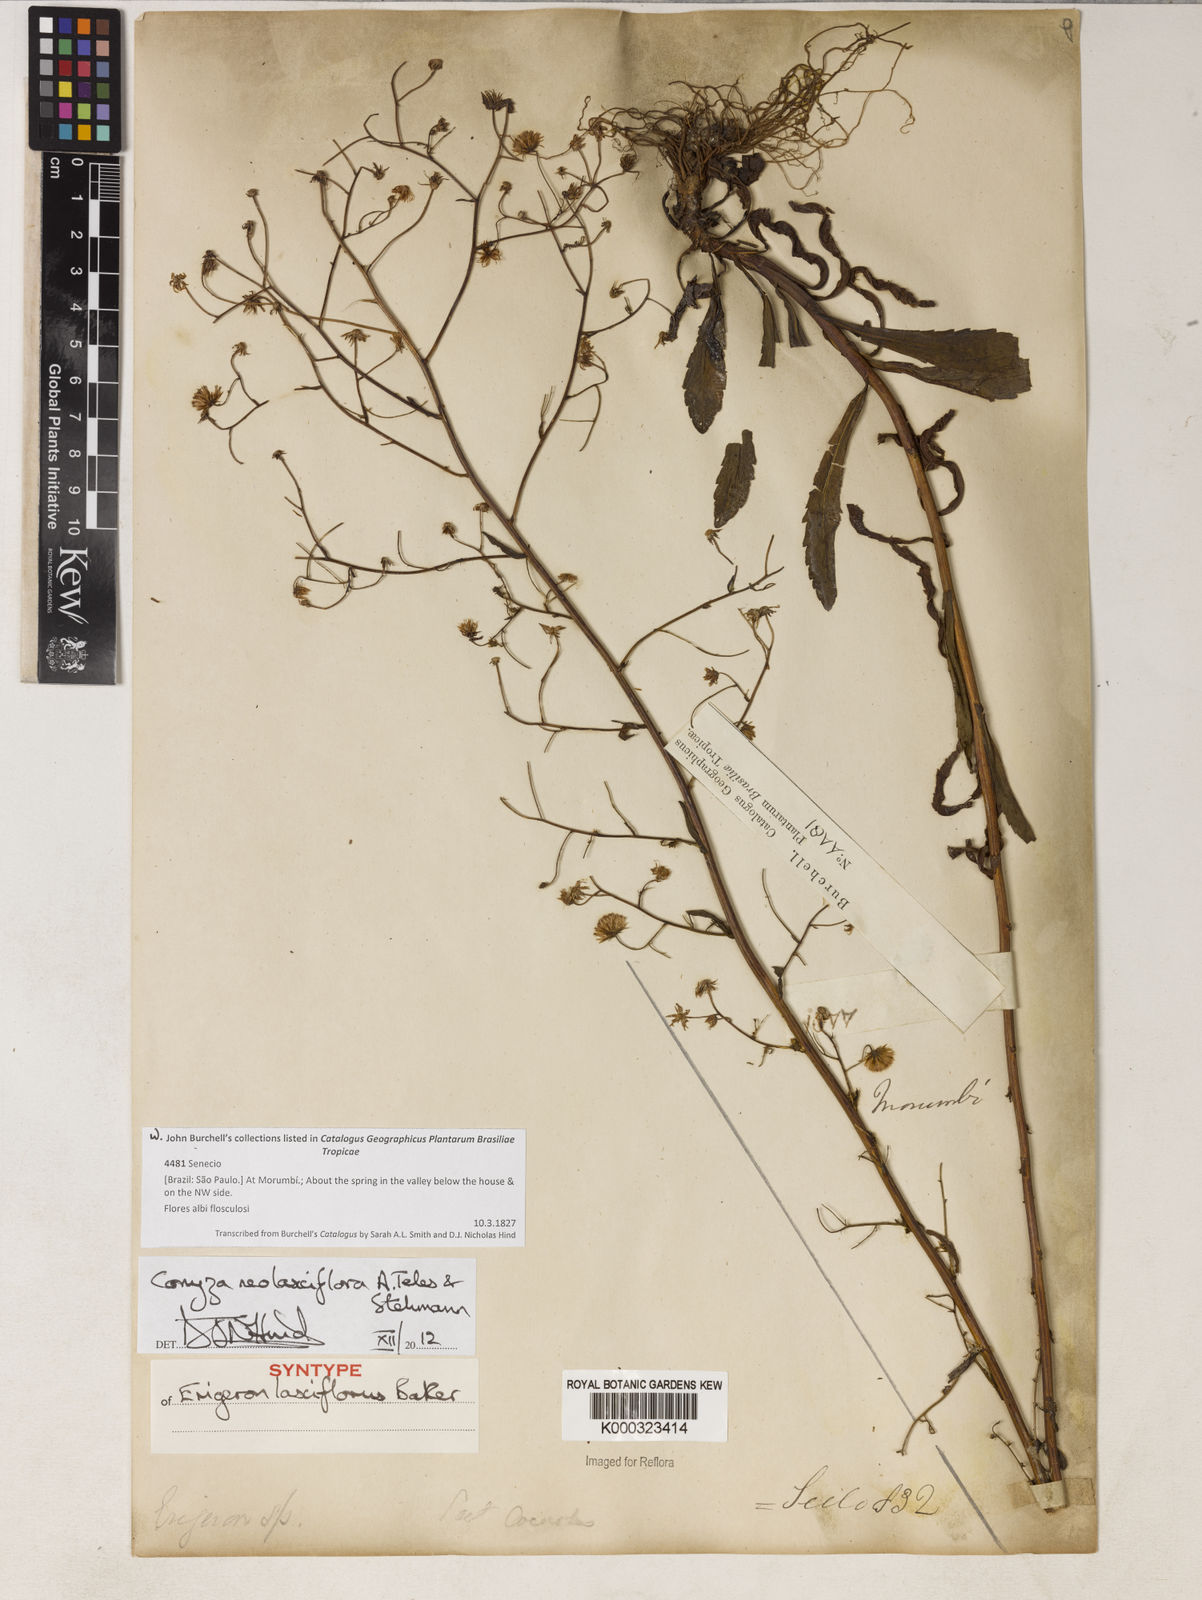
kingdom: Plantae
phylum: Tracheophyta
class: Magnoliopsida
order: Asterales
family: Asteraceae
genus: Erigeron
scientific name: Erigeron laxiflorus
